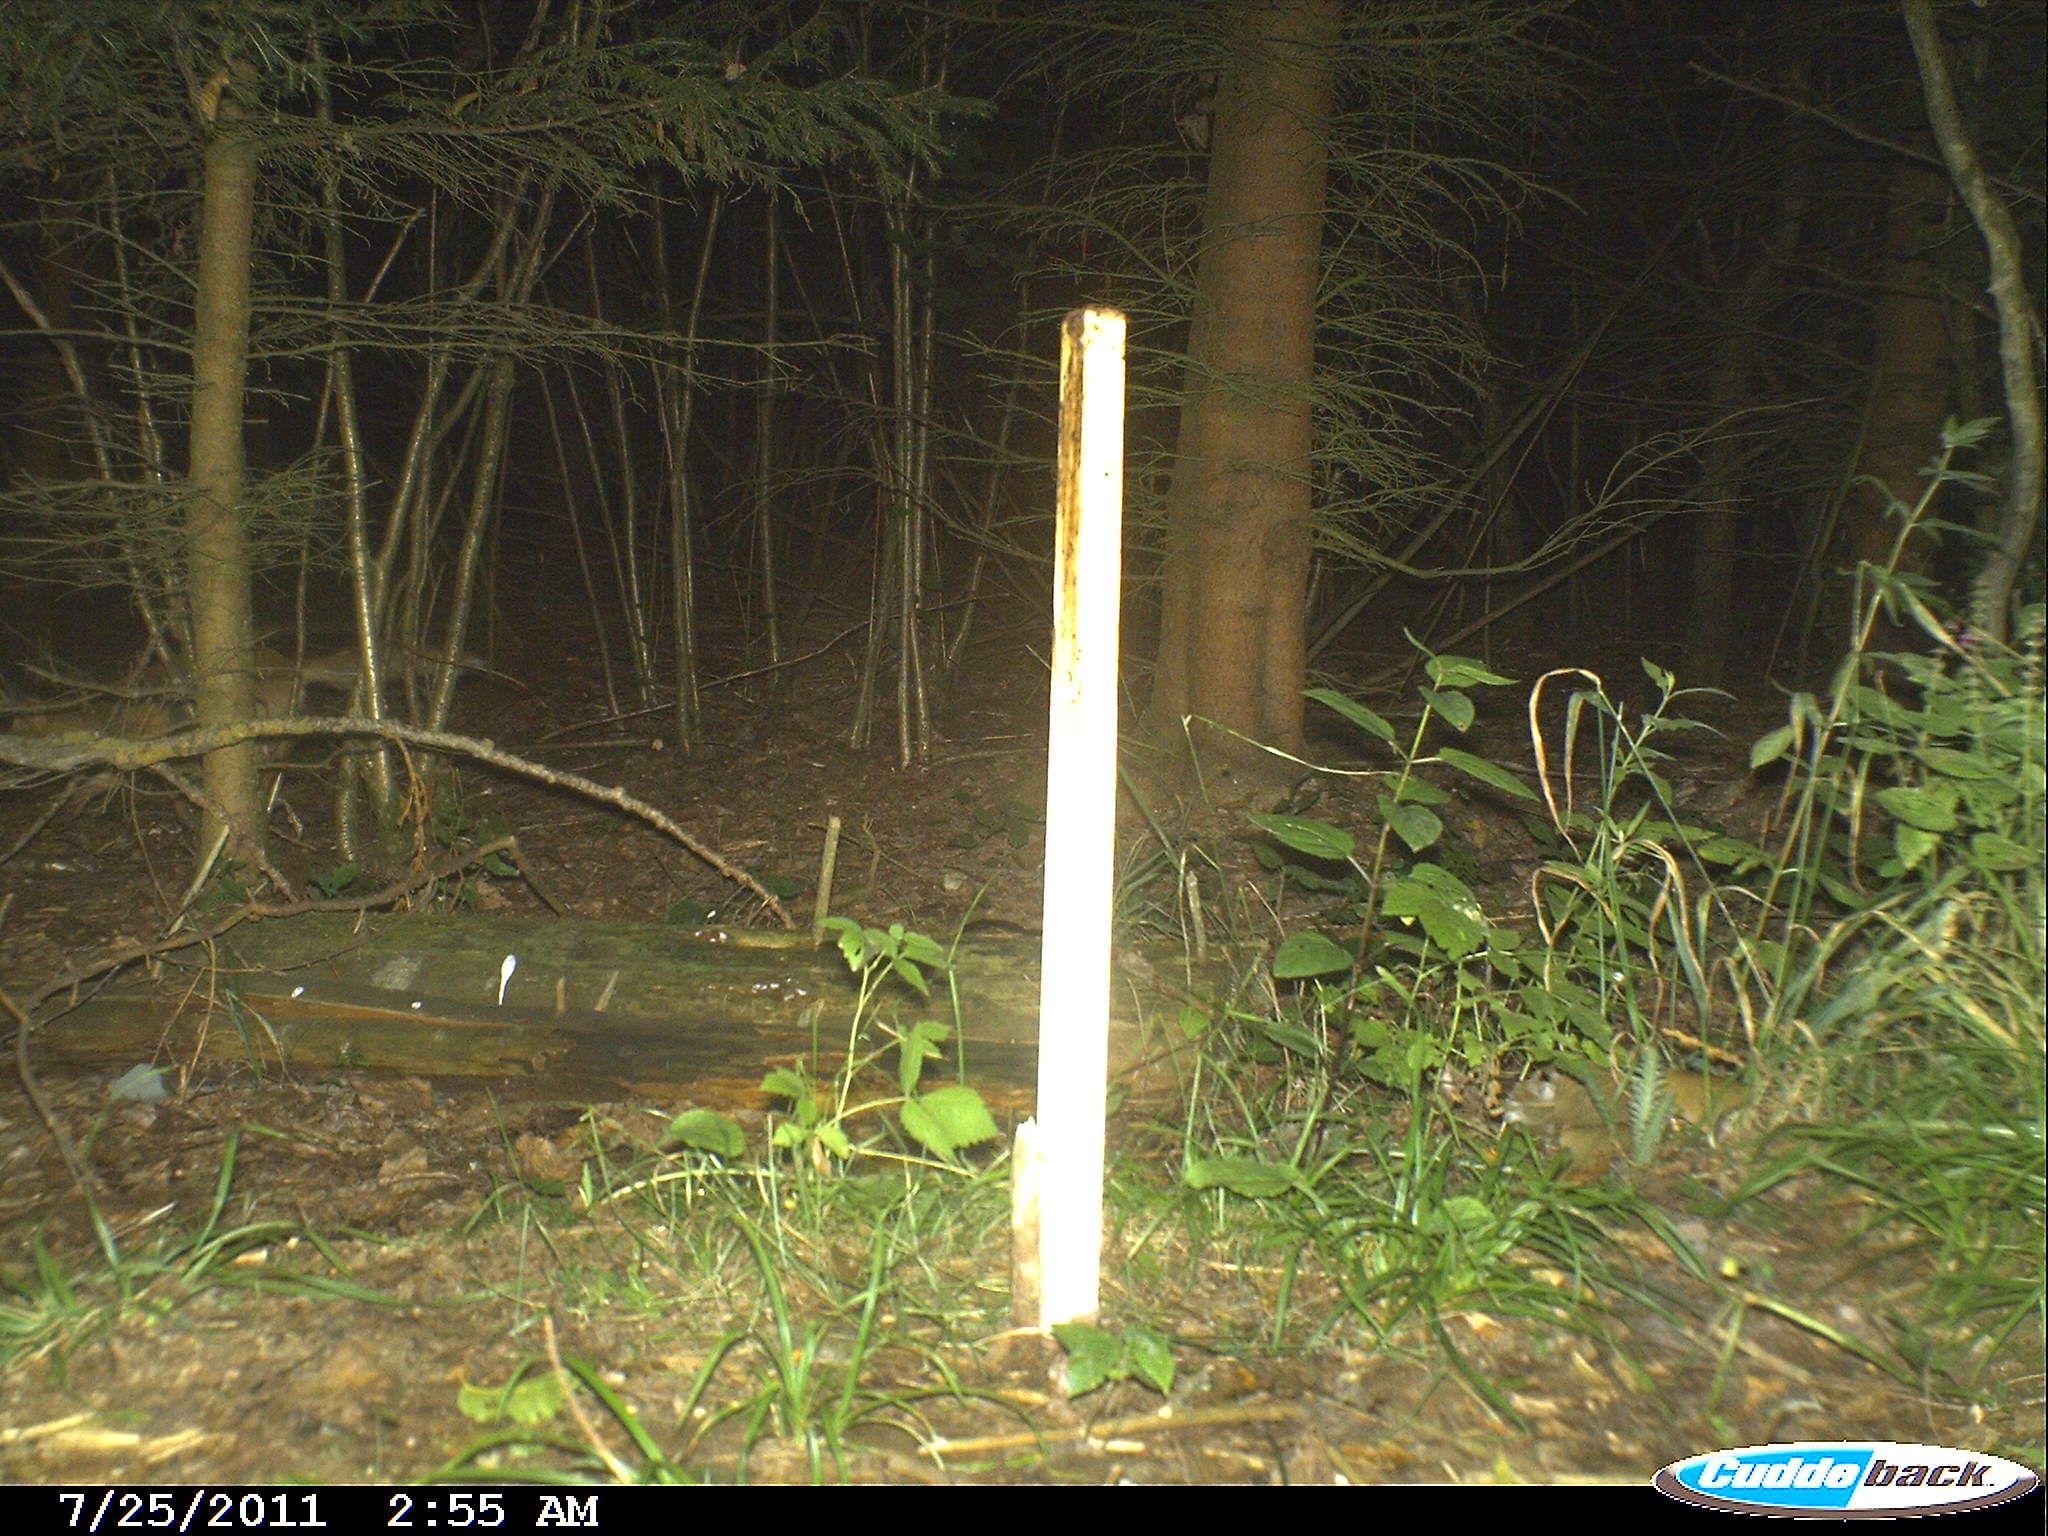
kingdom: Animalia
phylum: Chordata
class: Mammalia
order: Carnivora
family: Canidae
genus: Vulpes
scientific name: Vulpes vulpes
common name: Red fox
